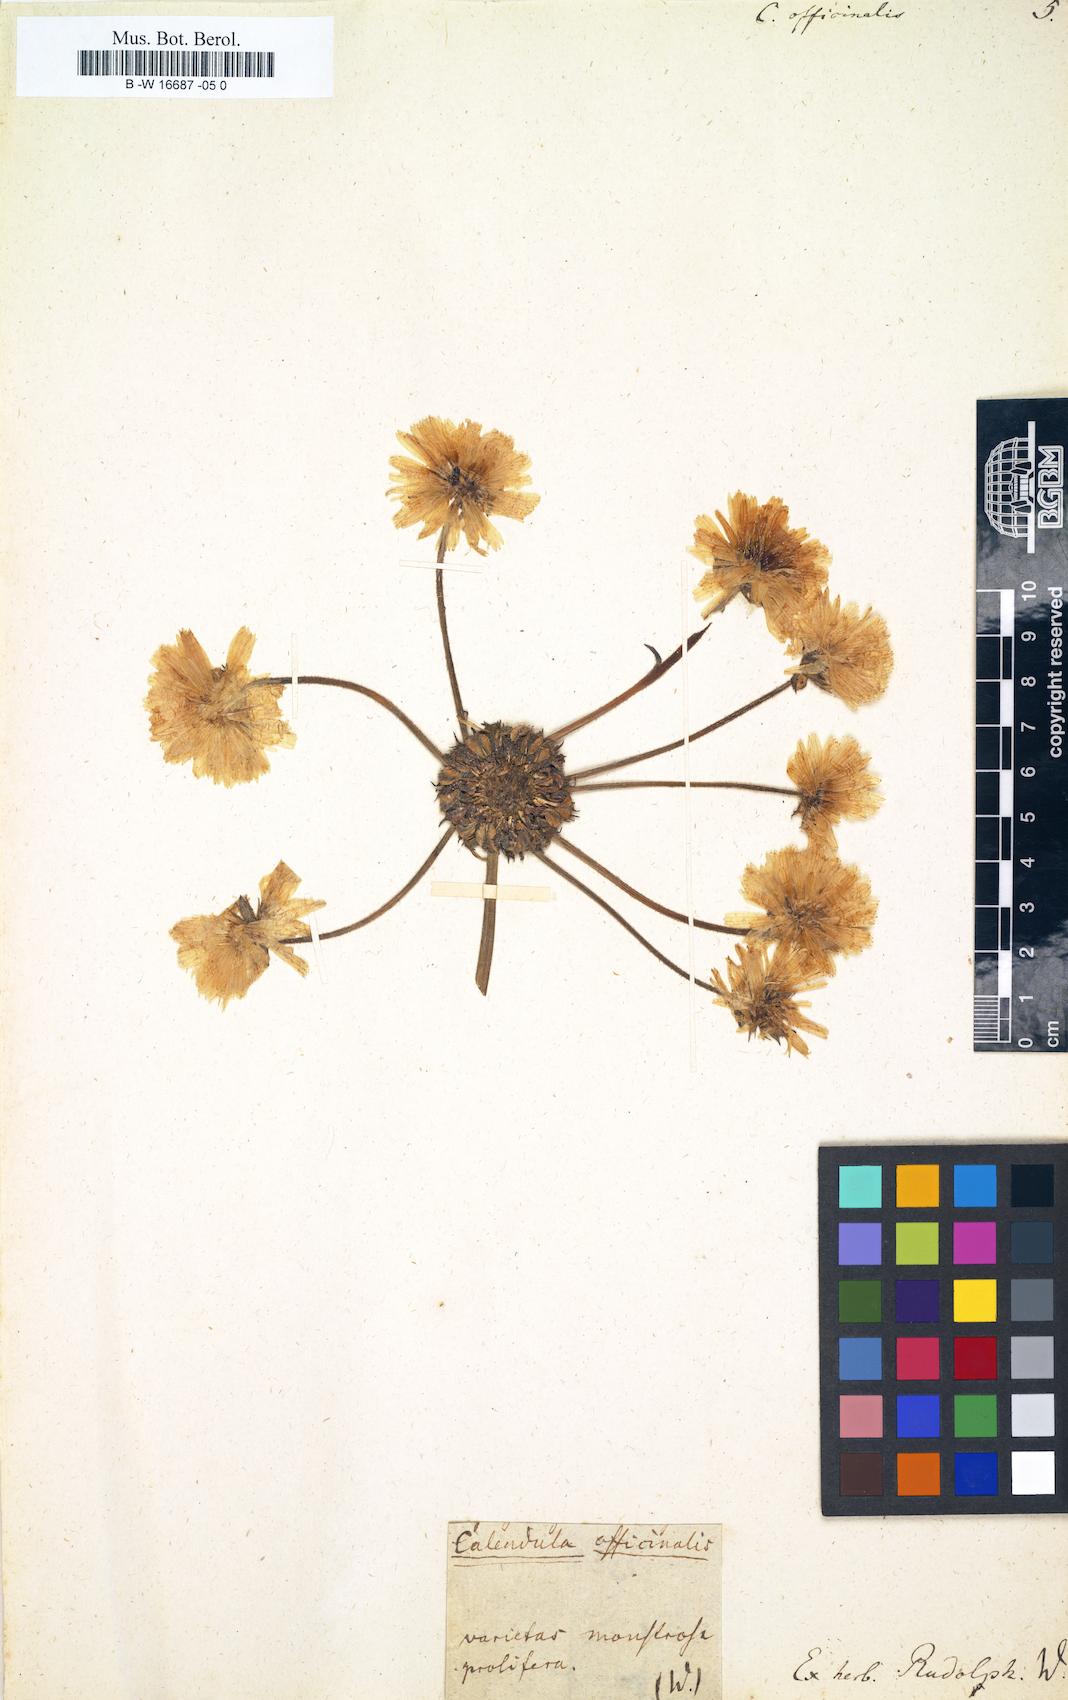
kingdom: Plantae
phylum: Tracheophyta
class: Magnoliopsida
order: Asterales
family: Asteraceae
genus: Calendula
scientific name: Calendula officinalis
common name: Pot marigold
